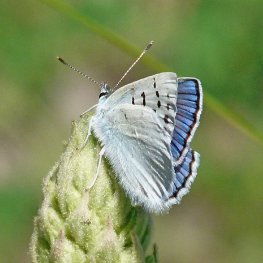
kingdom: Animalia
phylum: Arthropoda
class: Insecta
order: Lepidoptera
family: Lycaenidae
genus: Lycaena
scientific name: Lycaena heteronea
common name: Blue Copper
